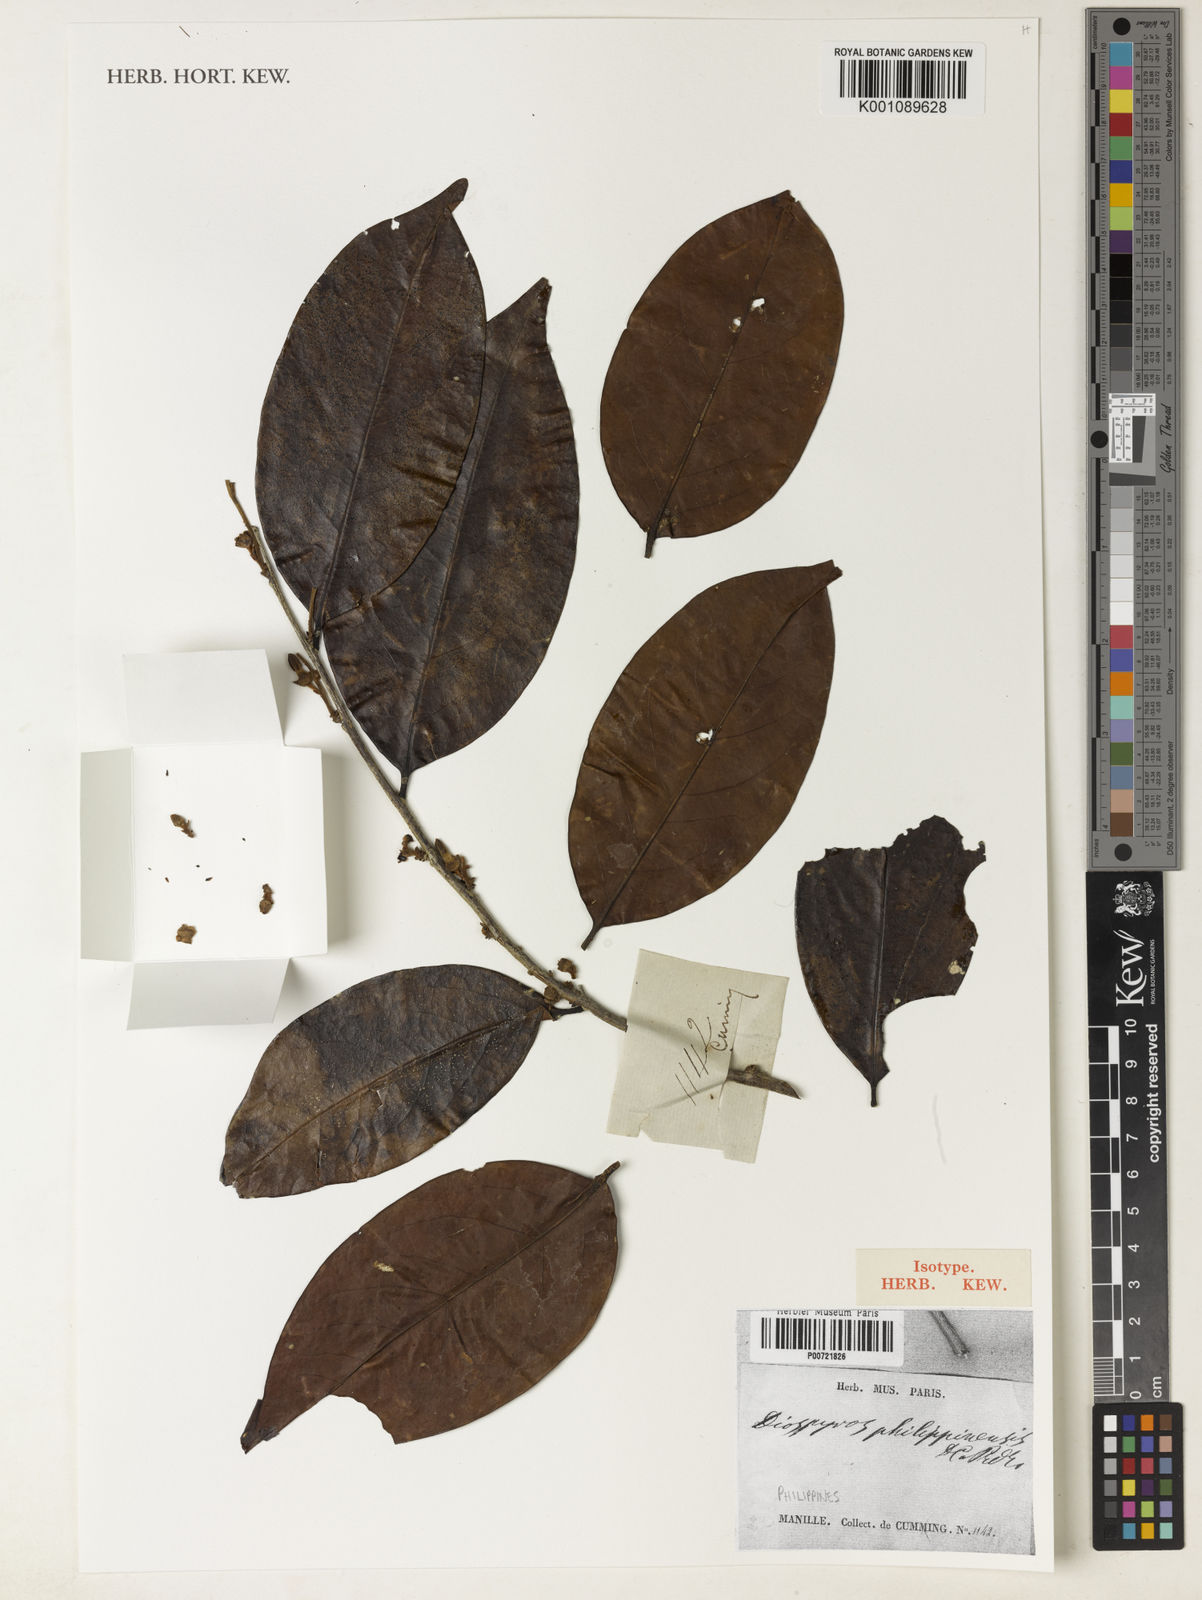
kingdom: Plantae
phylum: Tracheophyta
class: Magnoliopsida
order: Ericales
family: Ebenaceae
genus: Diospyros
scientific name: Diospyros philippinensis
